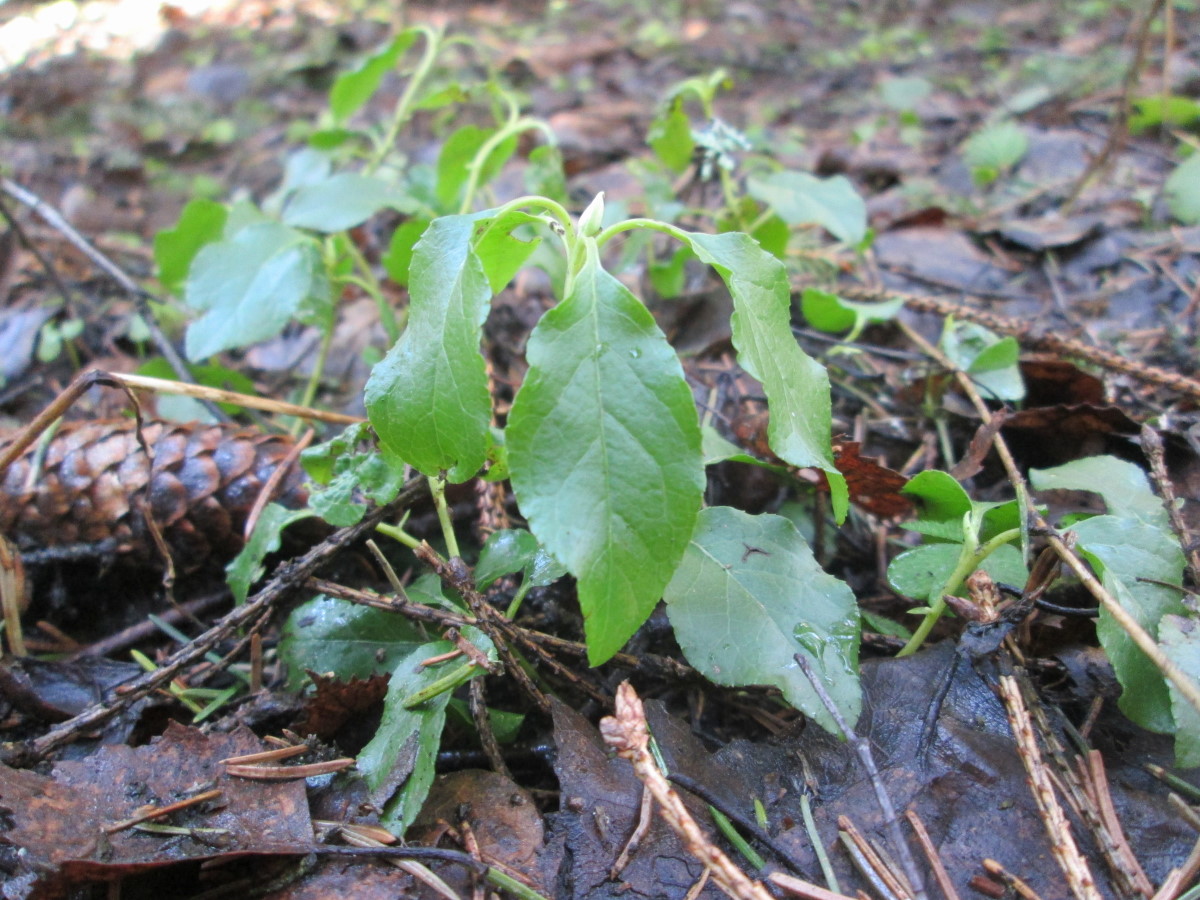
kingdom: Plantae
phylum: Tracheophyta
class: Magnoliopsida
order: Ericales
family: Ericaceae
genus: Orthilia
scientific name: Orthilia secunda
